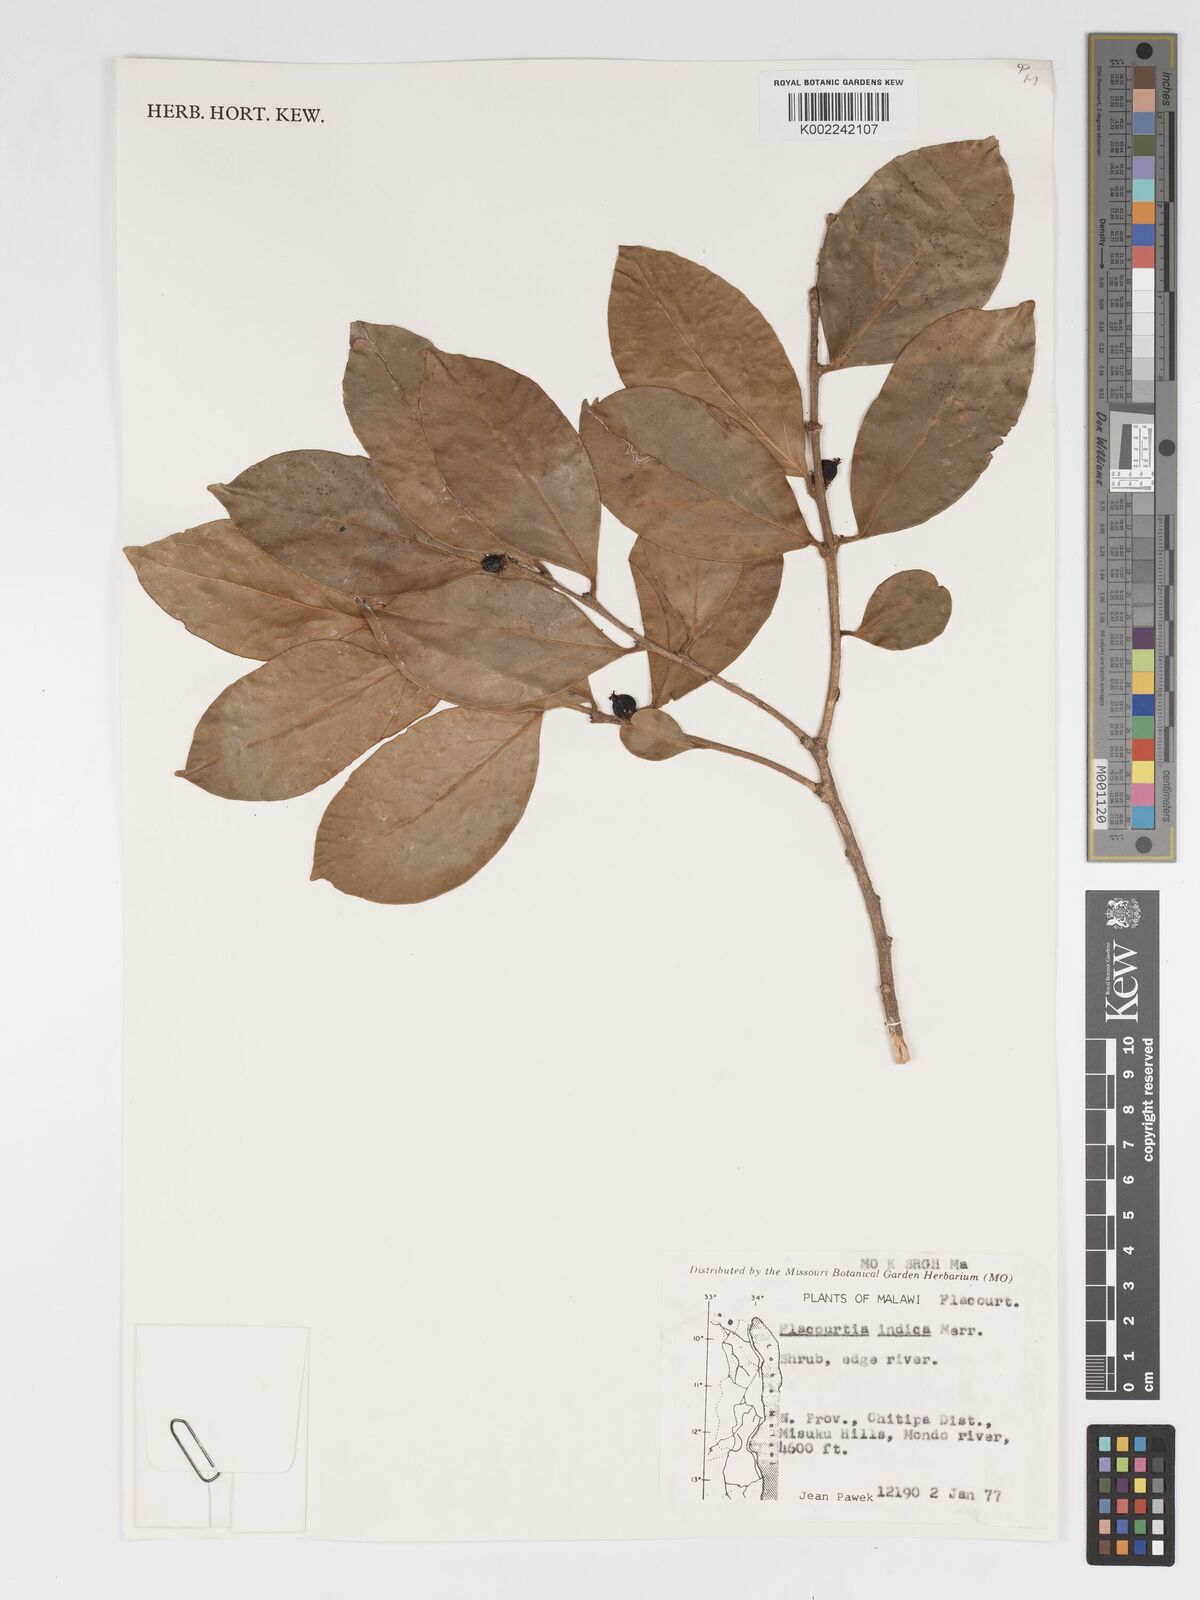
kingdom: Plantae
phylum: Tracheophyta
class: Magnoliopsida
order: Malpighiales
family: Salicaceae
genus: Flacourtia
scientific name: Flacourtia indica
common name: Governor's plum
